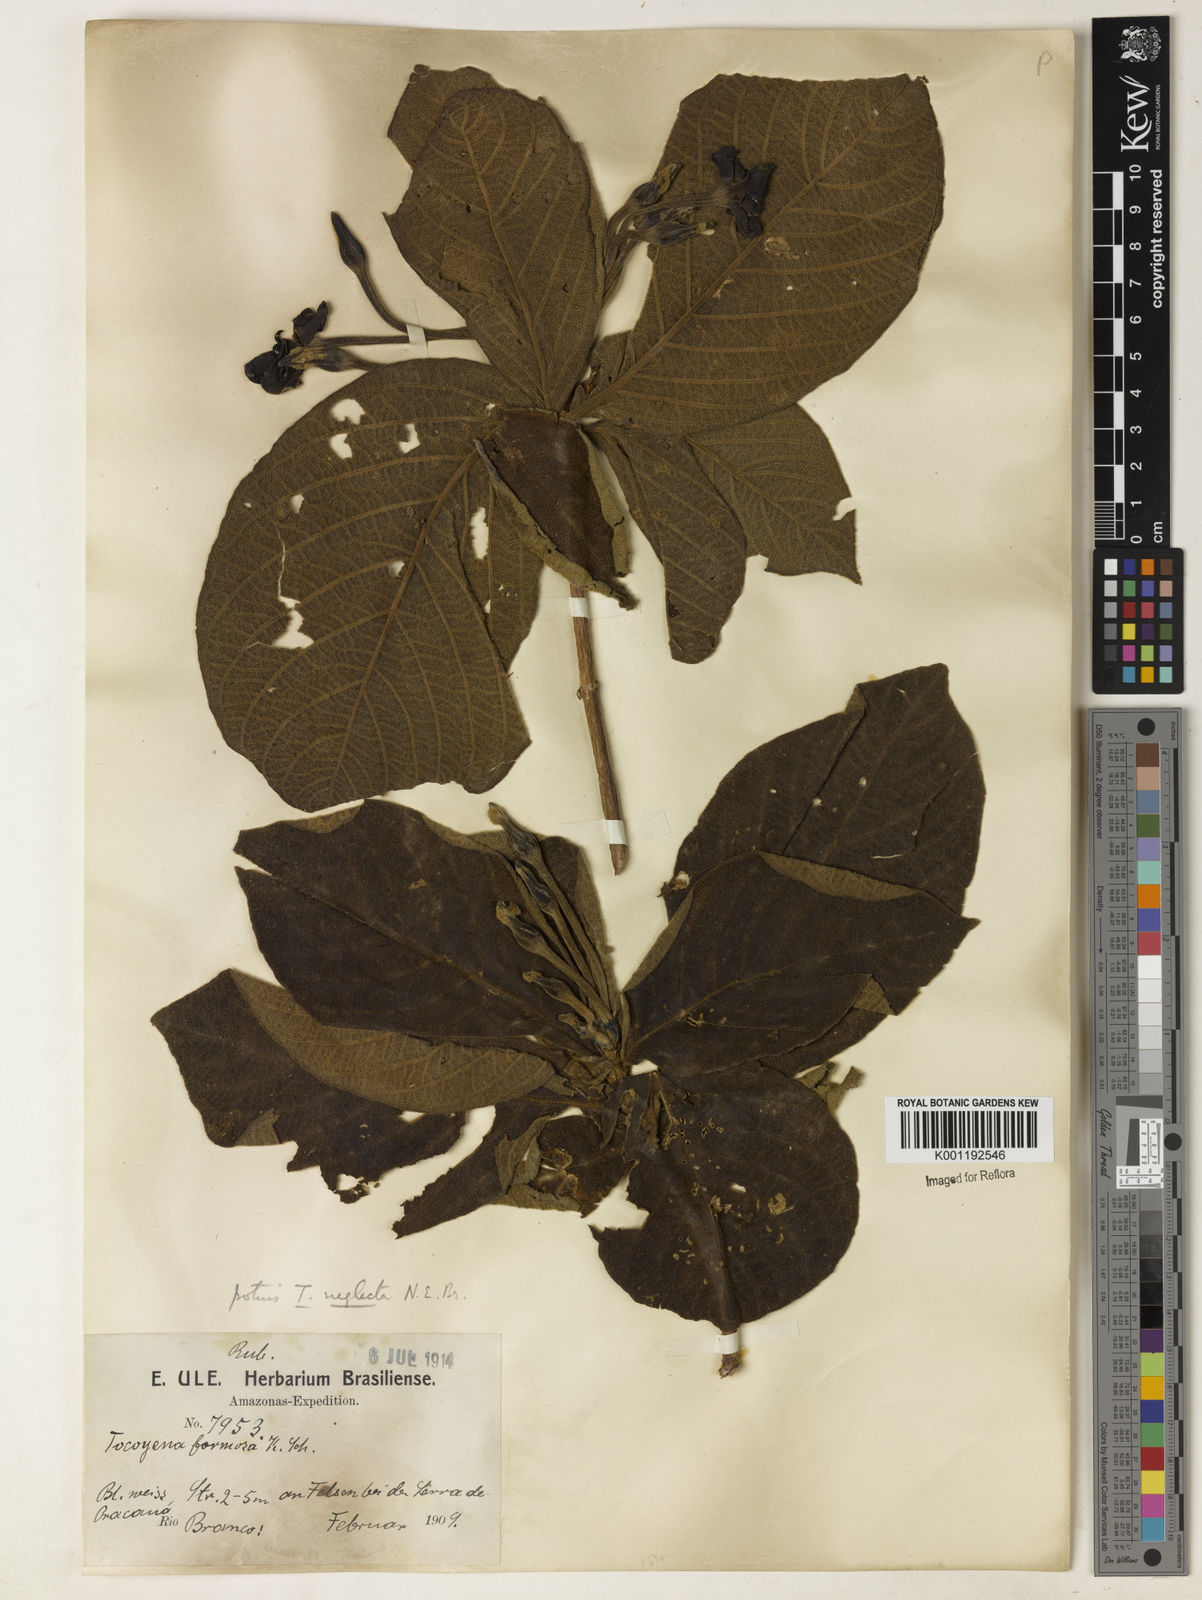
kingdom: Plantae
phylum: Tracheophyta
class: Magnoliopsida
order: Gentianales
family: Rubiaceae
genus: Tocoyena
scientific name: Tocoyena neglecta
